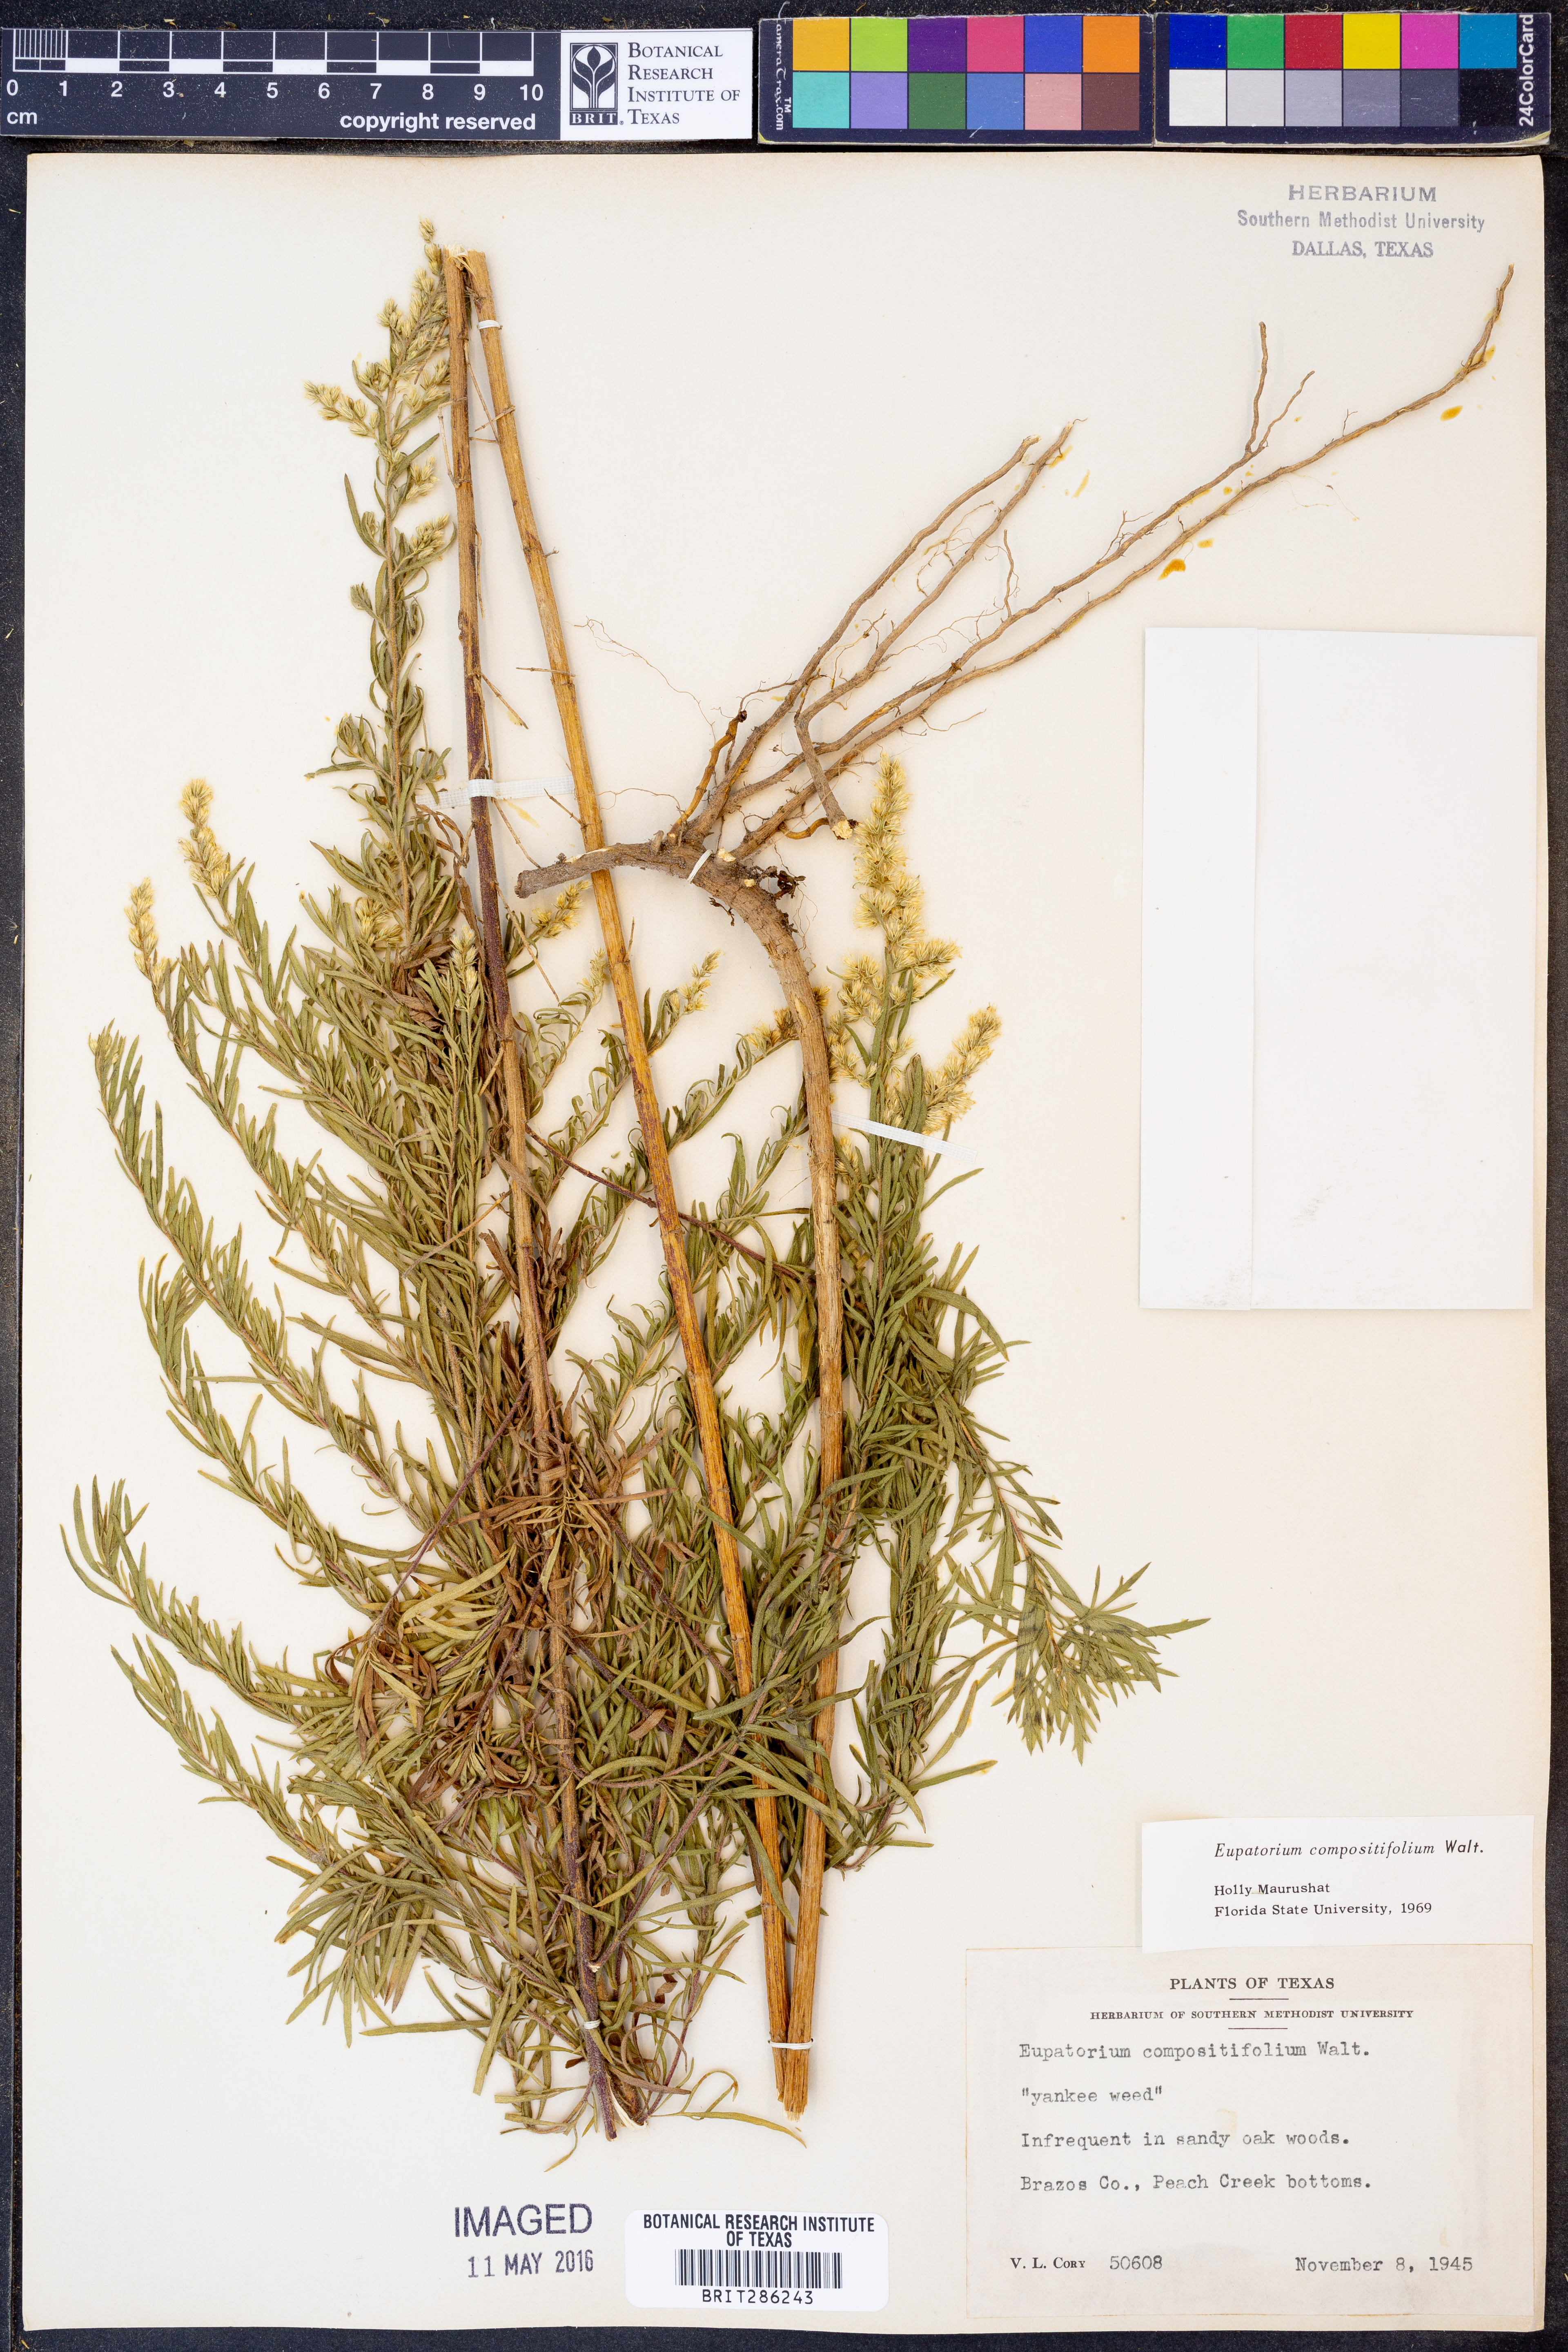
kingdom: Plantae
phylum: Tracheophyta
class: Magnoliopsida
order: Asterales
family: Asteraceae
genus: Eupatorium
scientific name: Eupatorium compositifolium
